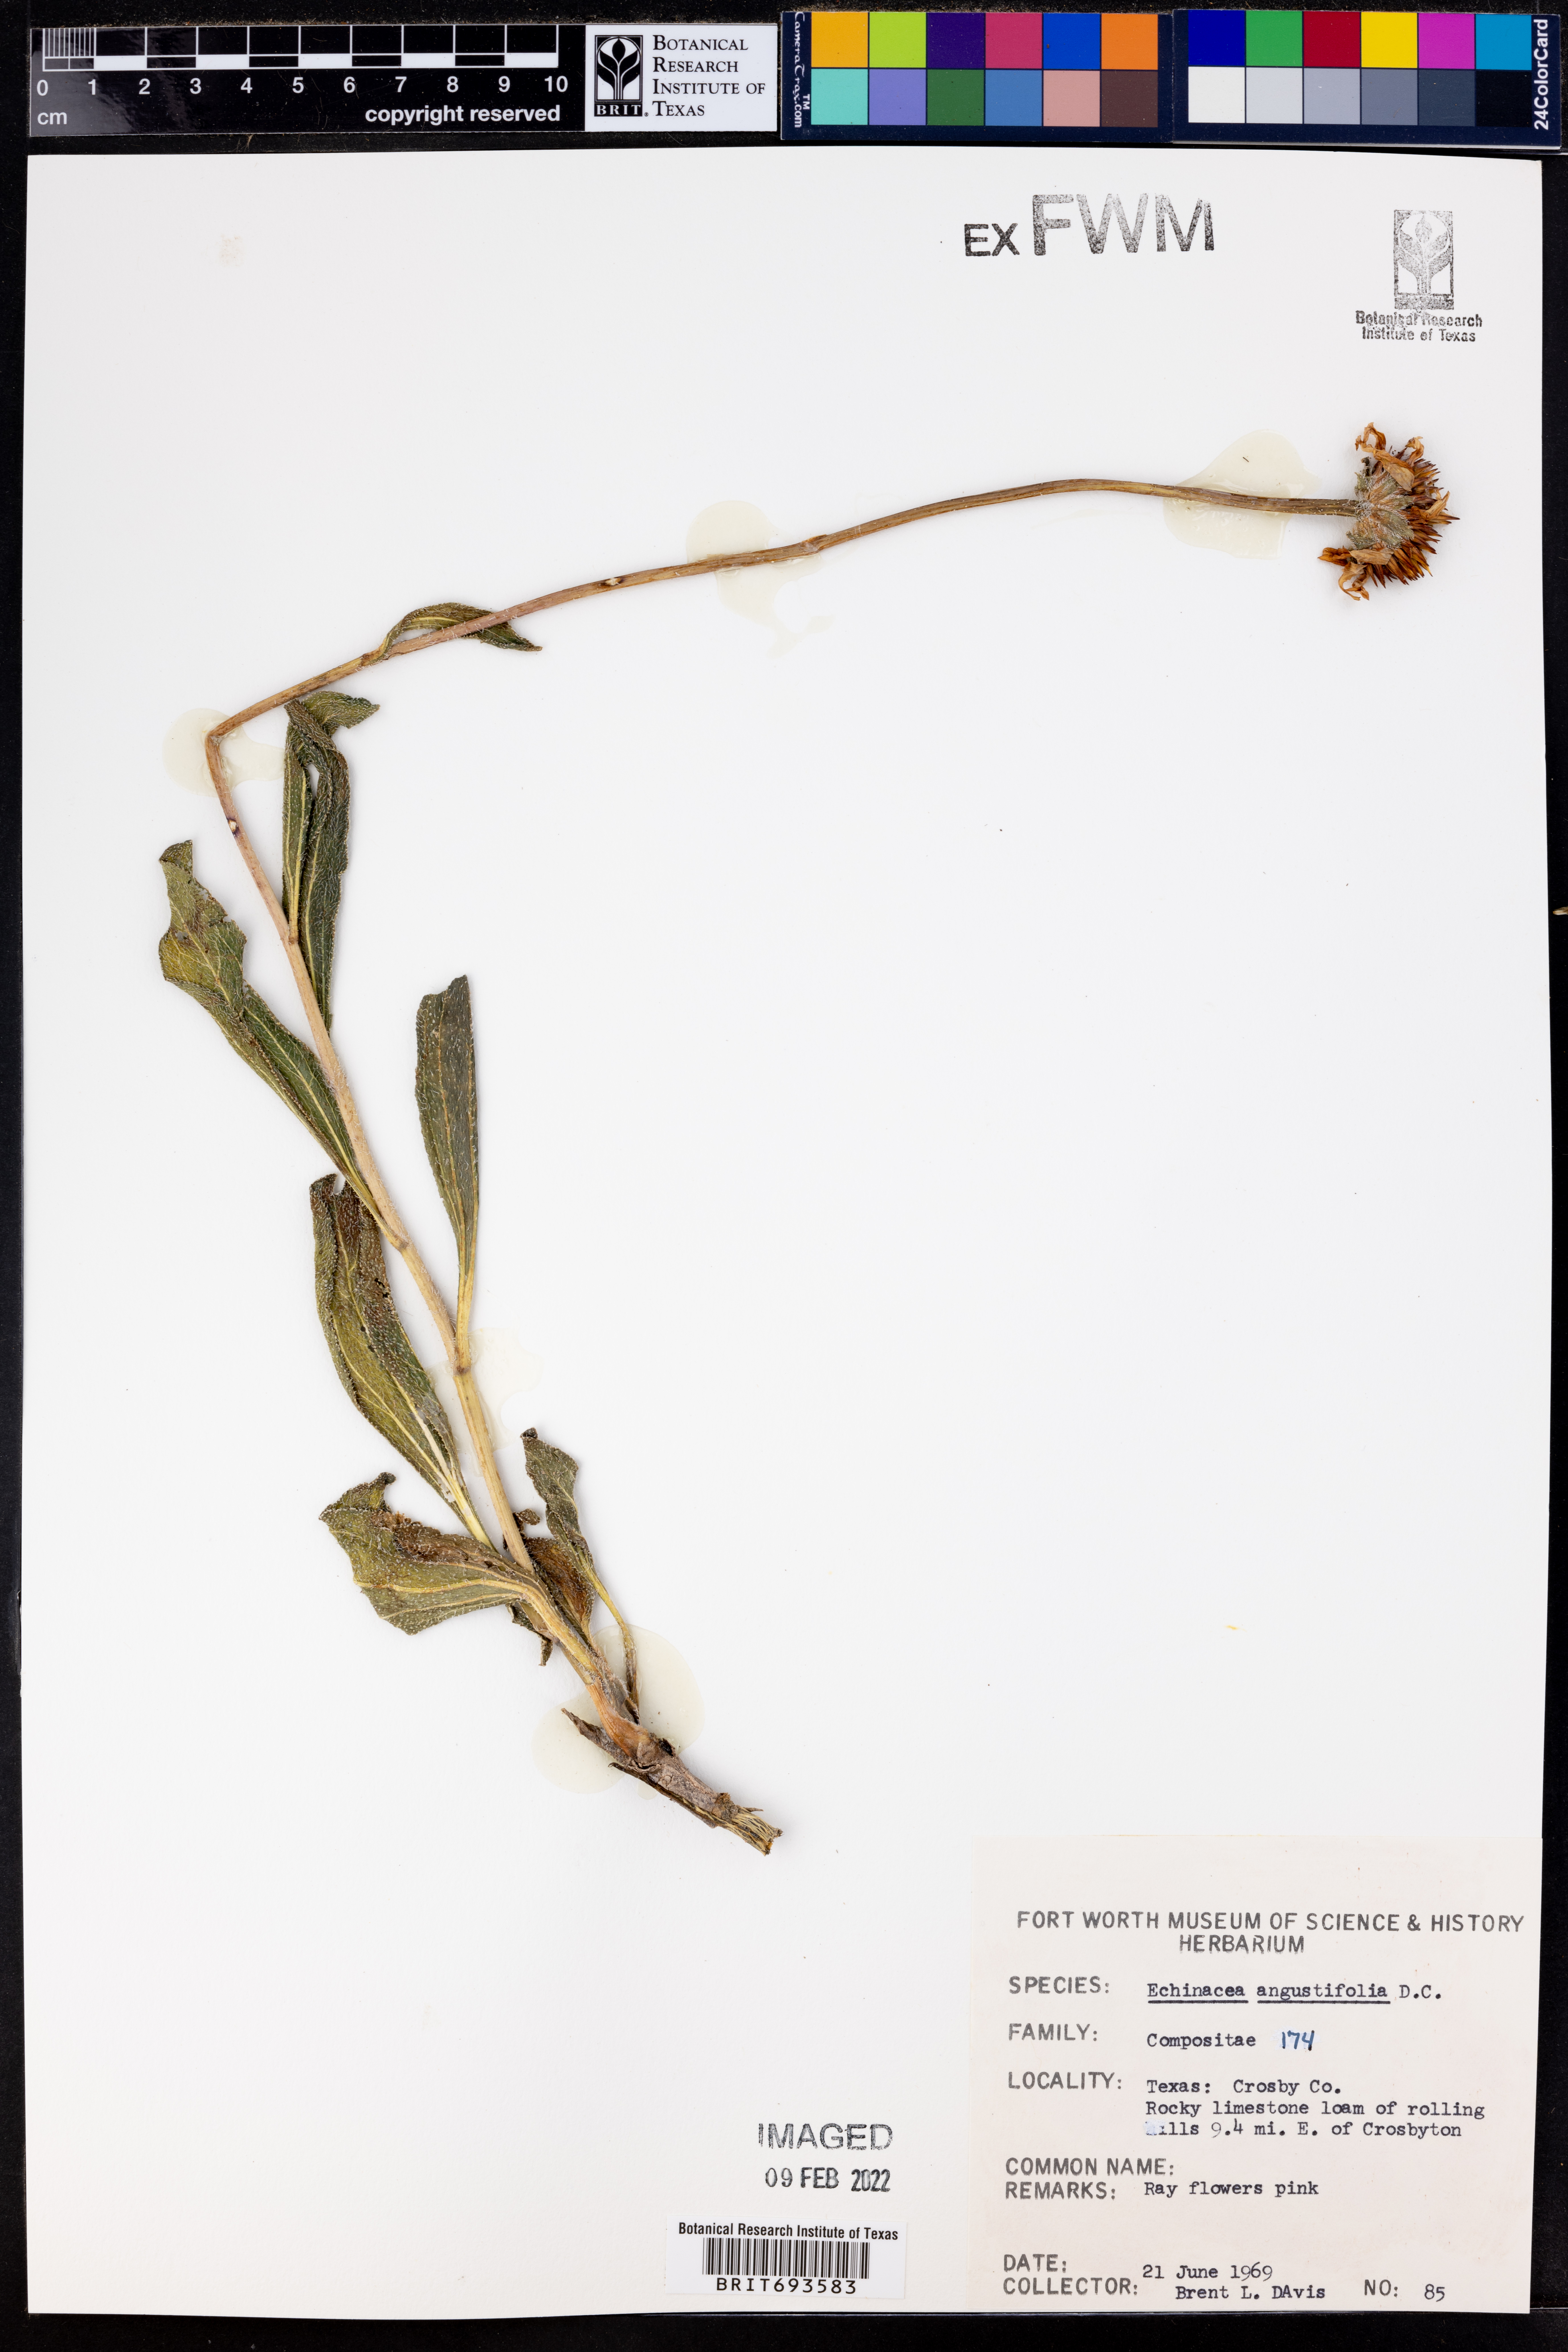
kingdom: Plantae
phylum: Tracheophyta
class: Magnoliopsida
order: Asterales
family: Asteraceae
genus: Echinacea
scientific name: Echinacea angustifolia
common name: Black-sampson echinacea
